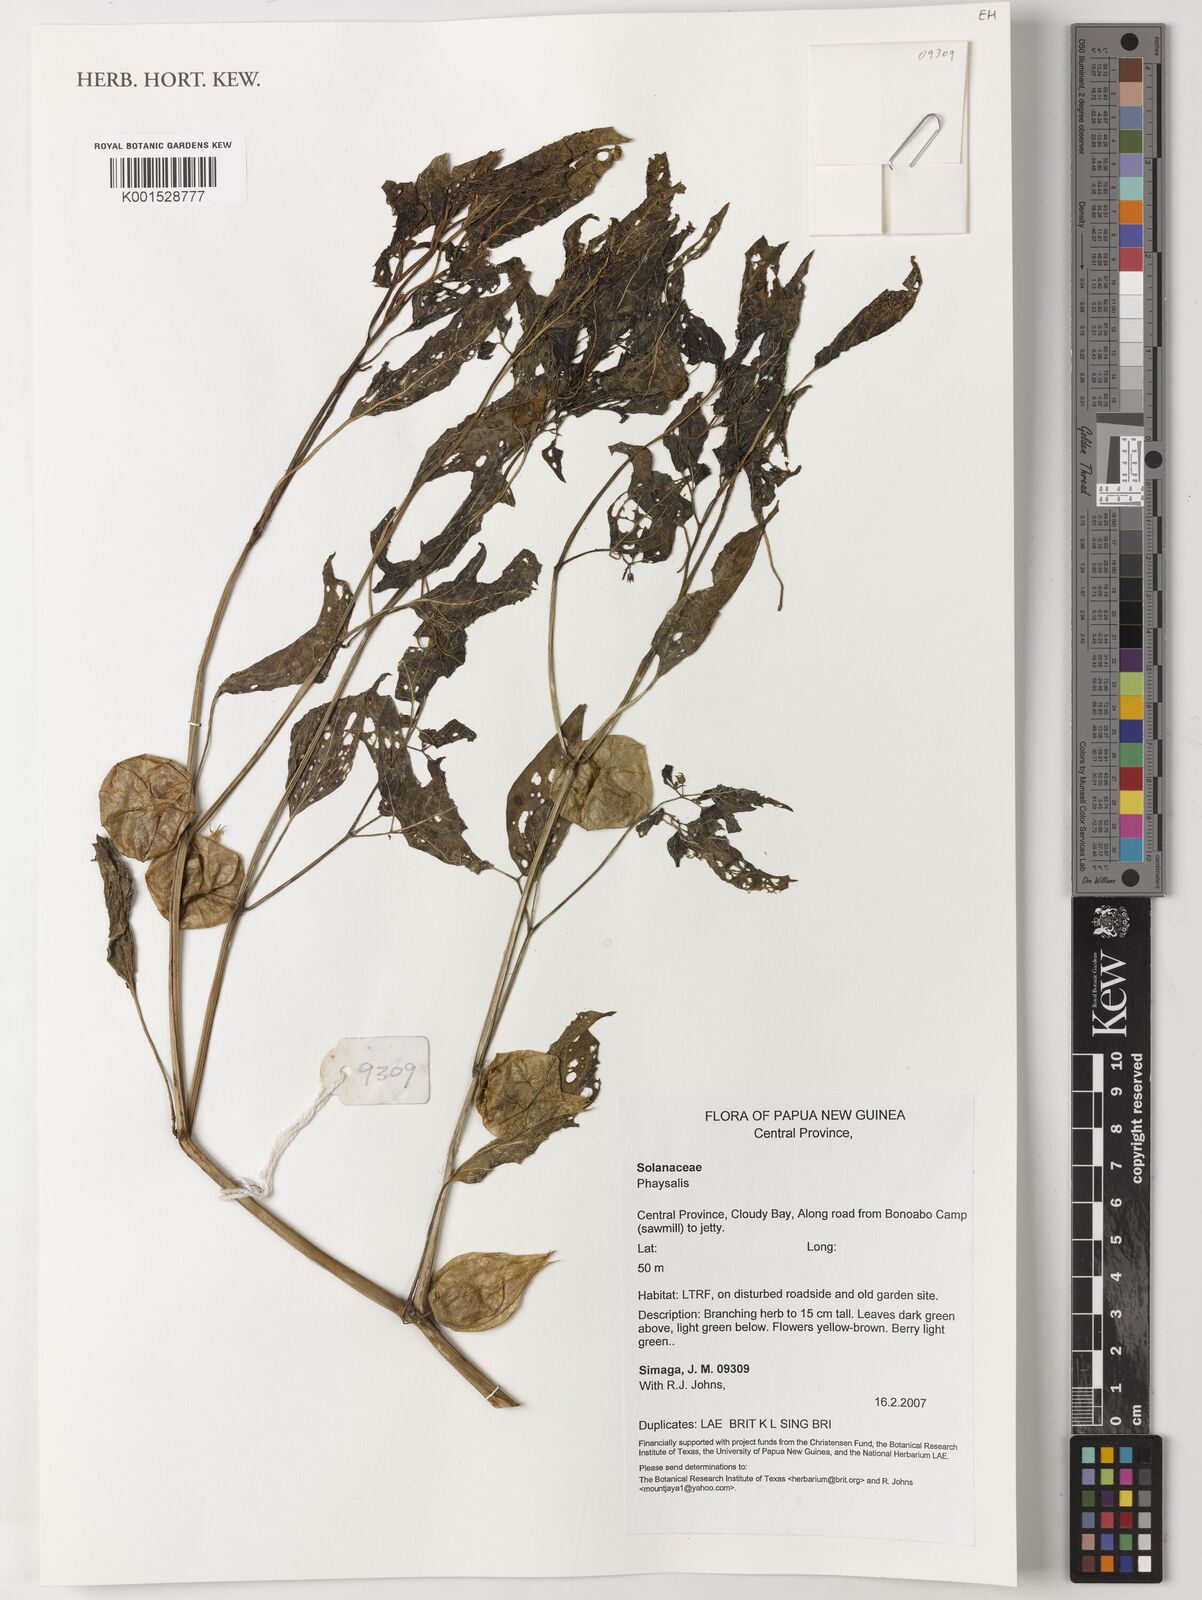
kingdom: Plantae
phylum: Tracheophyta
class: Magnoliopsida
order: Solanales
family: Solanaceae
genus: Physalis
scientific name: Physalis
